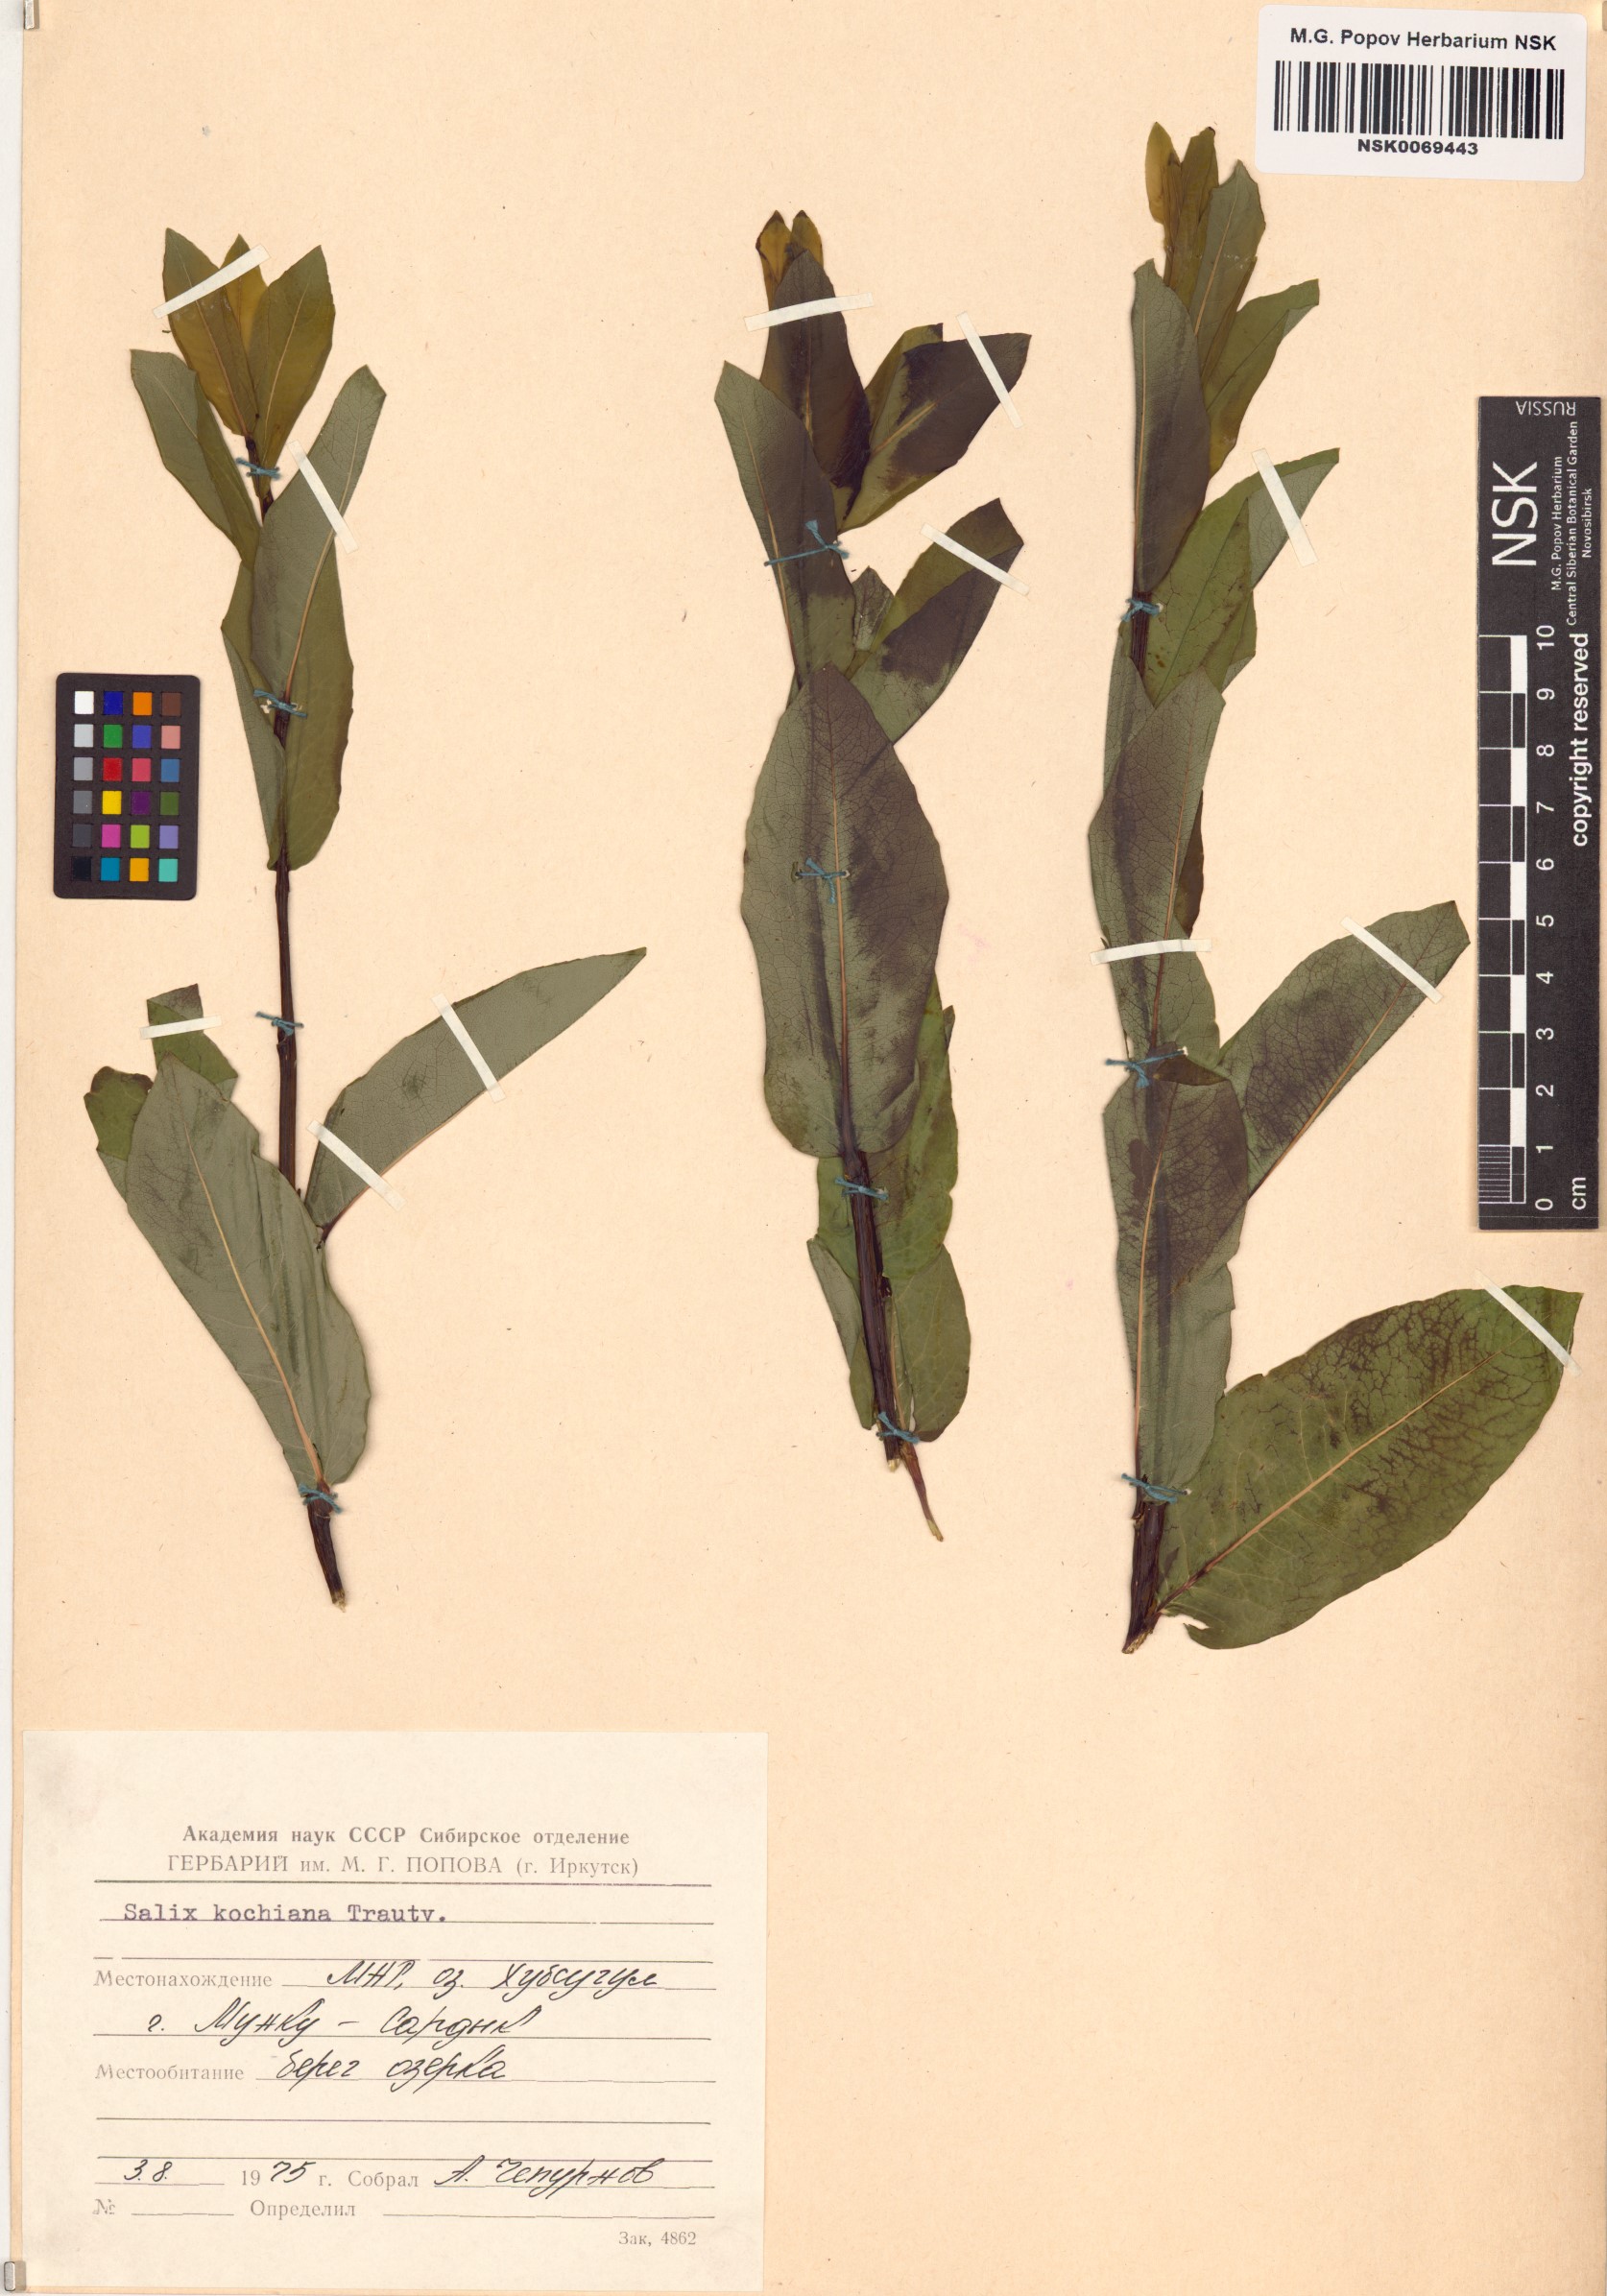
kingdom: Plantae
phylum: Tracheophyta
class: Magnoliopsida
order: Malpighiales
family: Salicaceae
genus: Salix
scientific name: Salix kochiana
